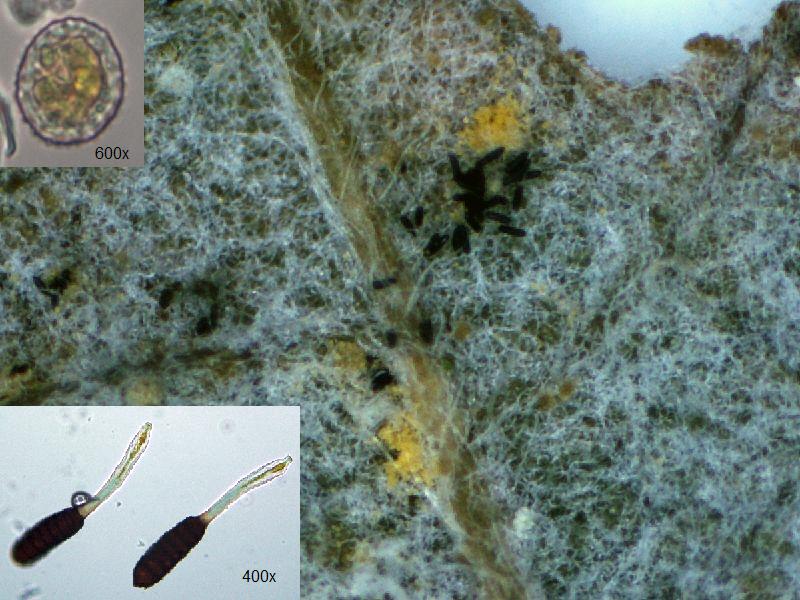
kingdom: Fungi
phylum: Basidiomycota
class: Pucciniomycetes
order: Pucciniales
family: Phragmidiaceae
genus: Phragmidium
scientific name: Phragmidium rubi-idaei
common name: hindbær-flercellerust
